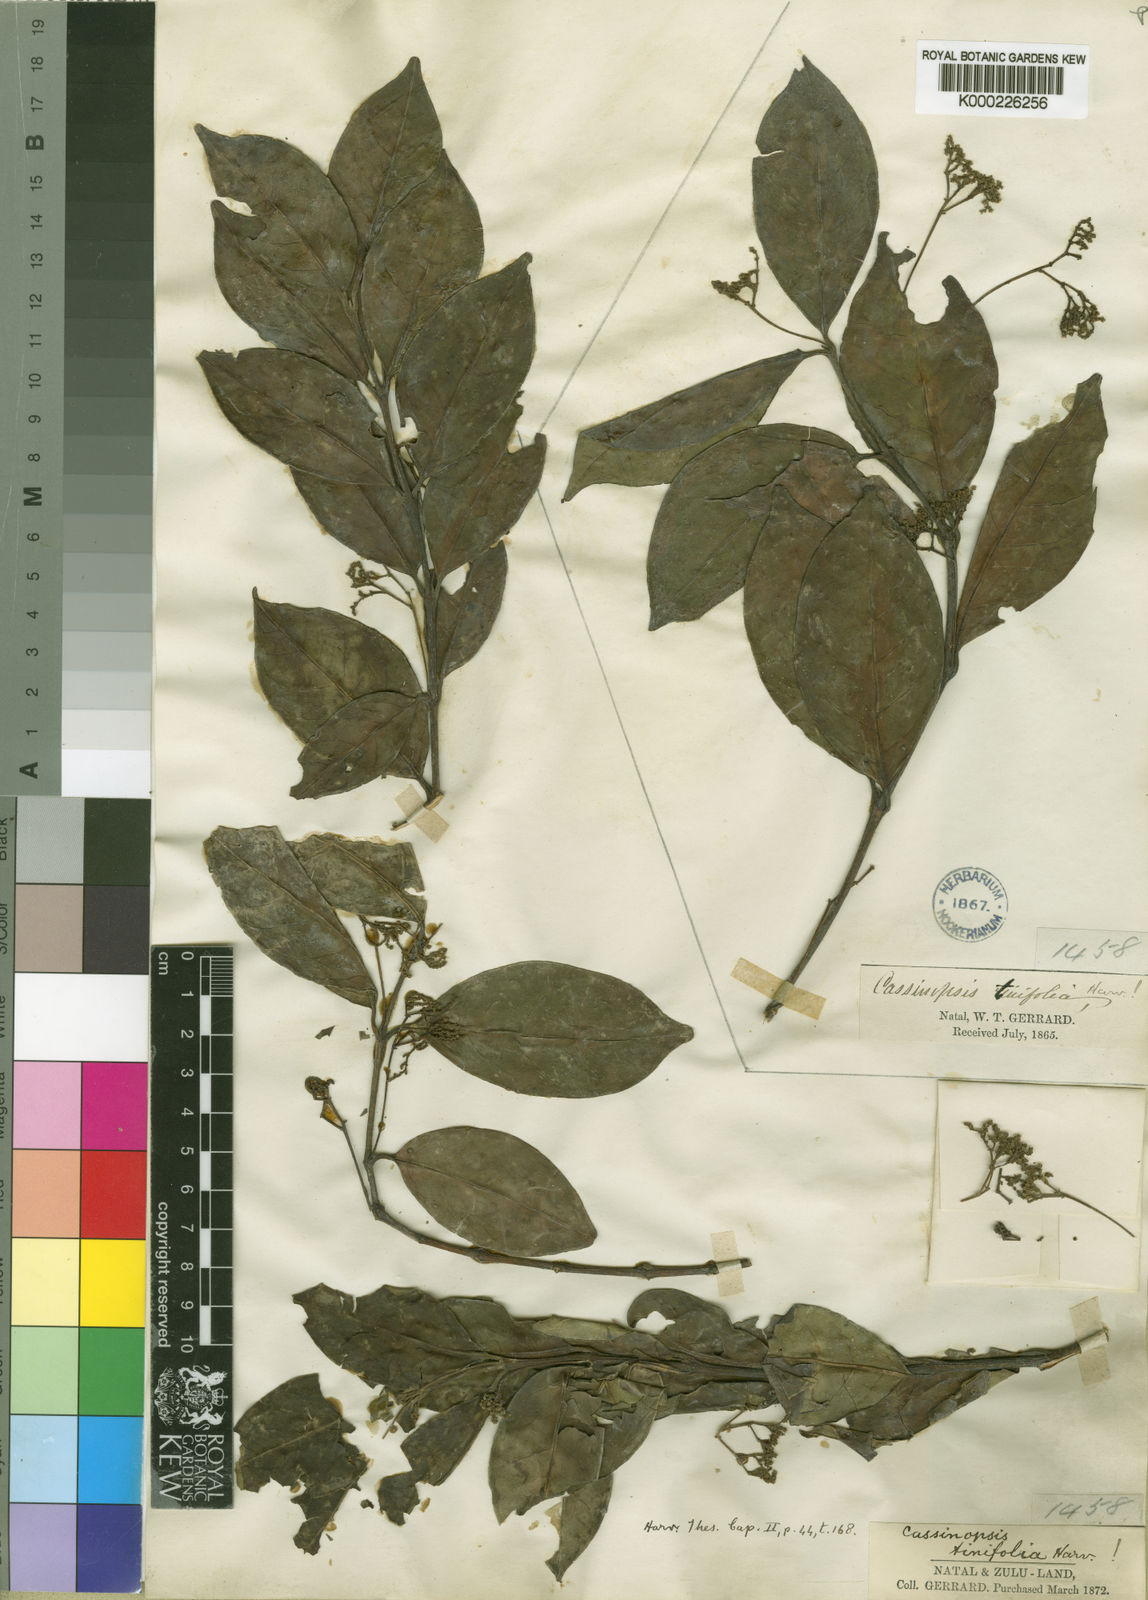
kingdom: Plantae
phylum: Tracheophyta
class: Magnoliopsida
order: Icacinales
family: Icacinaceae
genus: Cassinopsis
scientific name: Cassinopsis tinifolia
